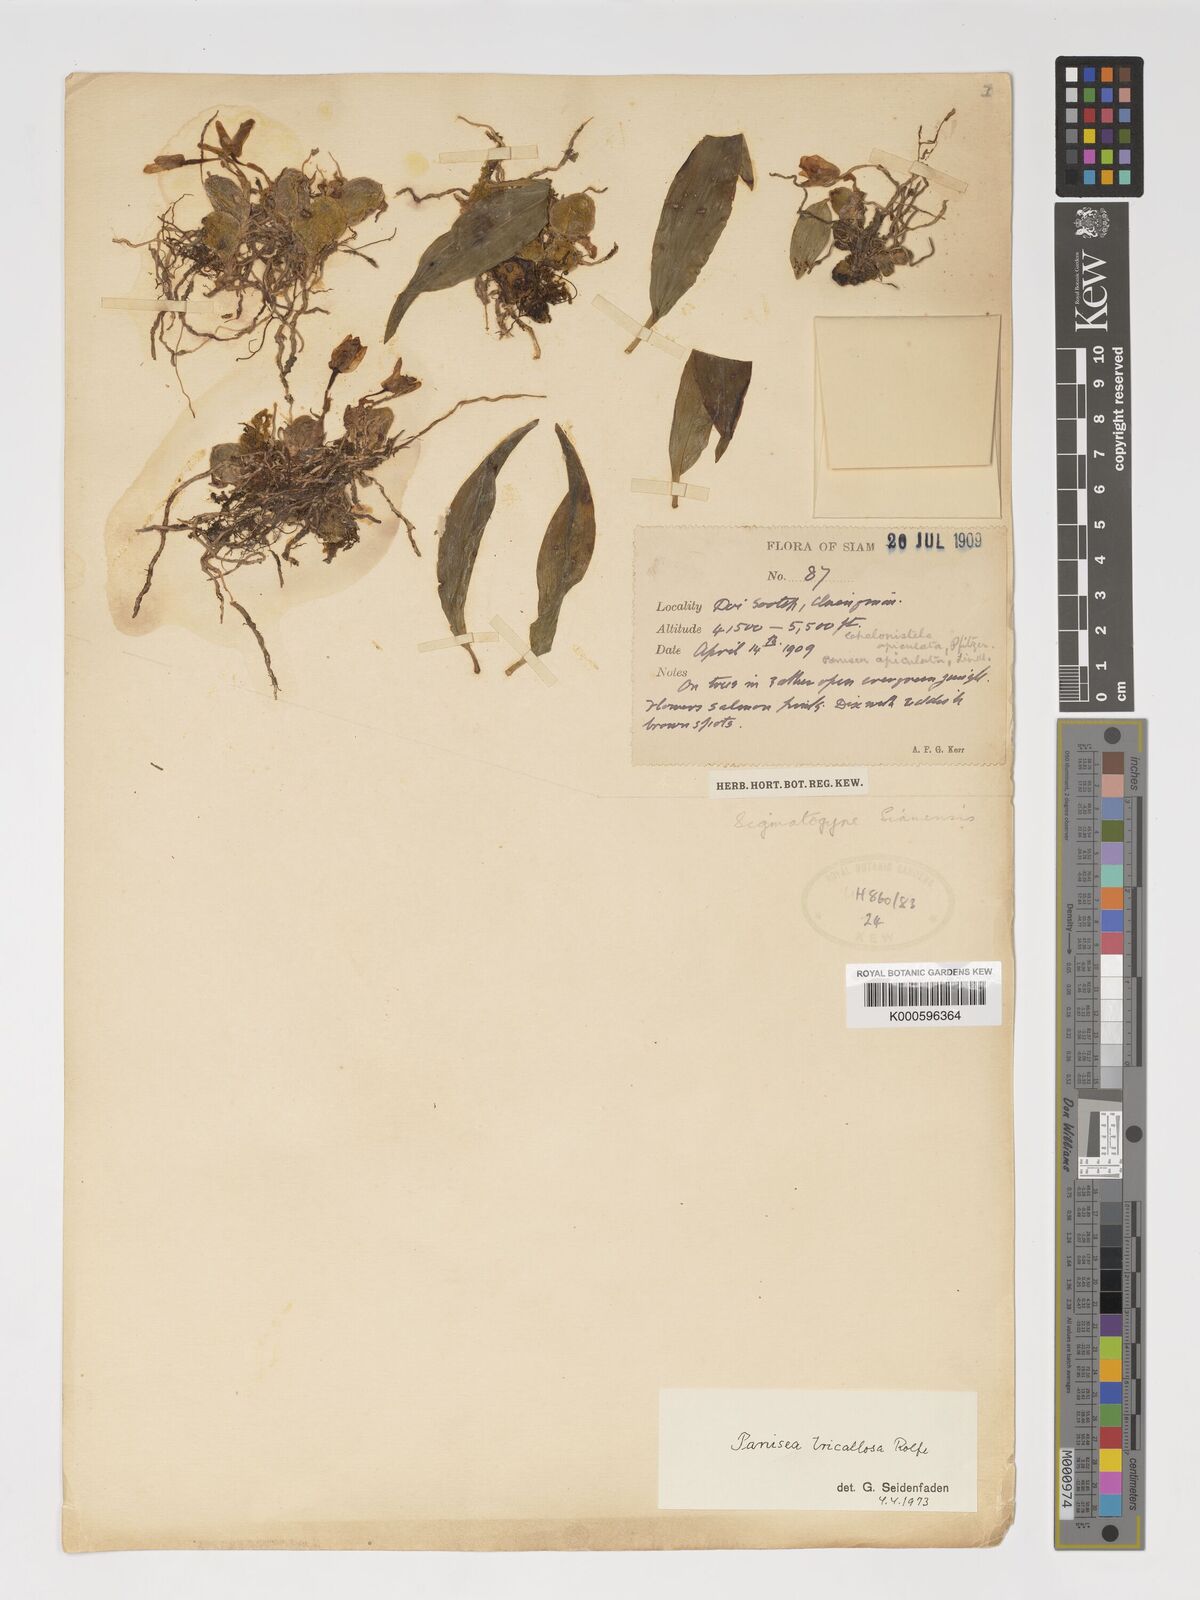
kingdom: Plantae
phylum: Tracheophyta
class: Liliopsida
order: Asparagales
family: Orchidaceae
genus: Coelogyne
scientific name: Coelogyne tricallosa
